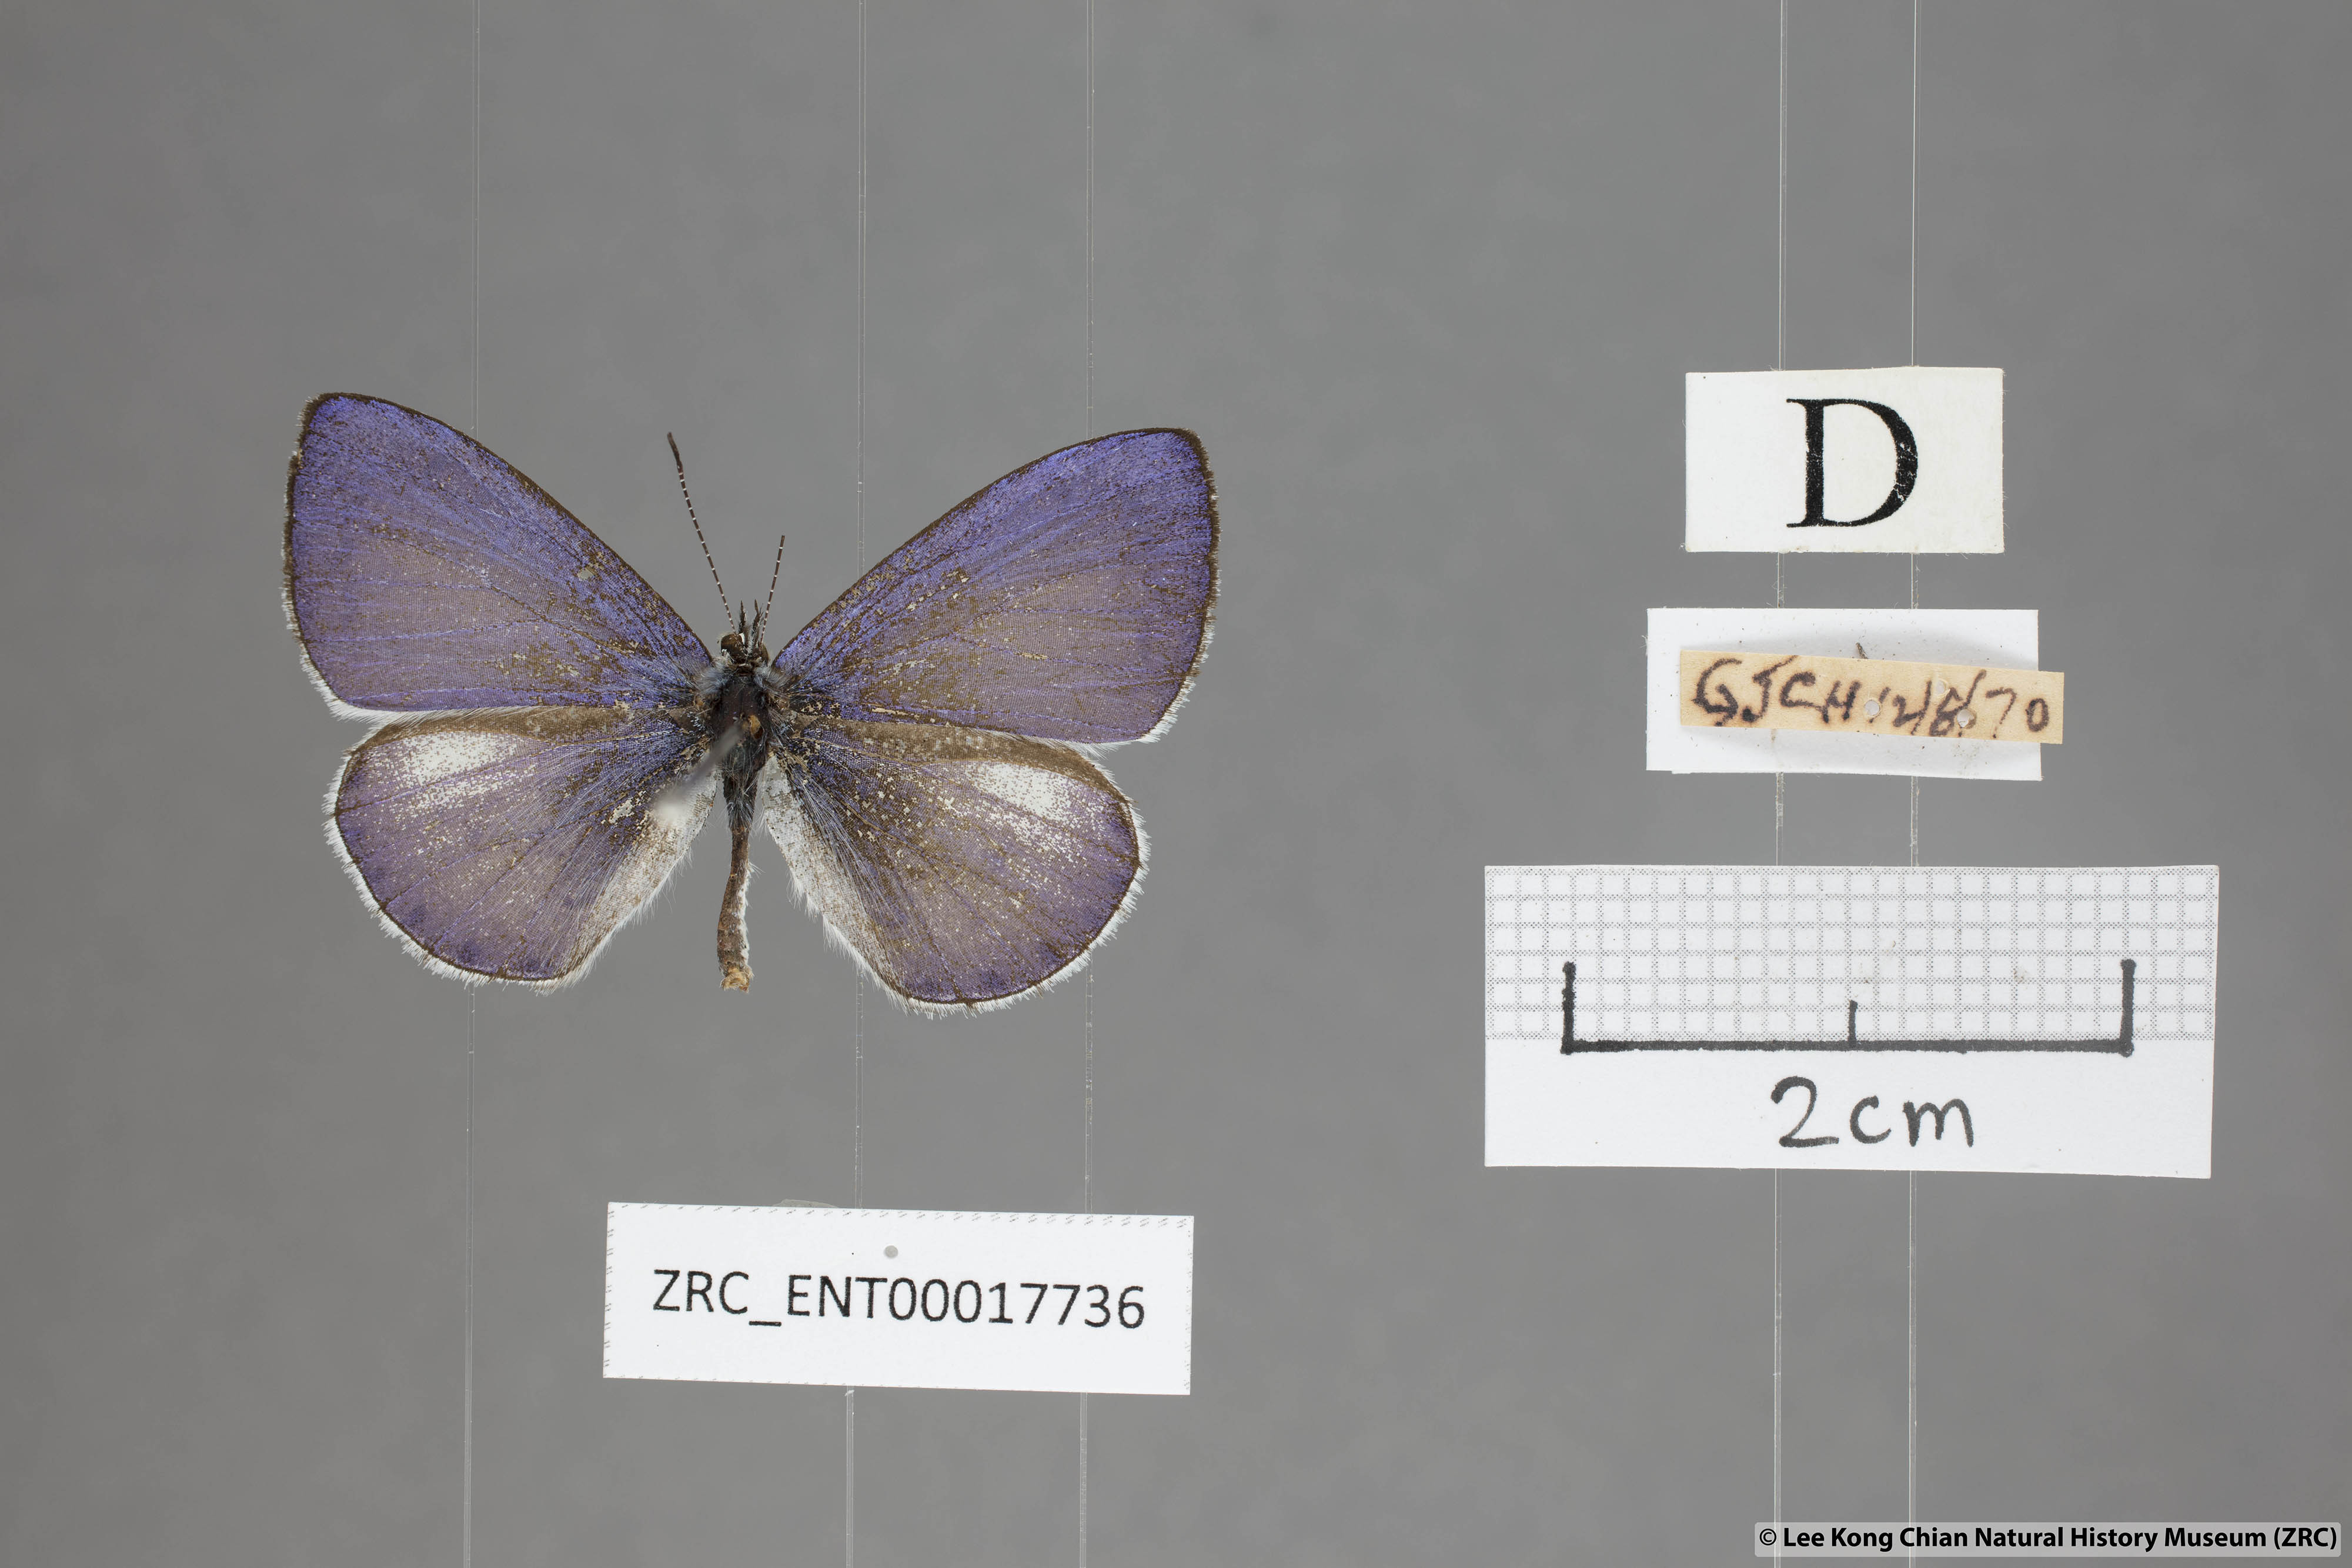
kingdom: Animalia
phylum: Arthropoda
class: Insecta
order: Lepidoptera
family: Lycaenidae
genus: Udara
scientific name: Udara
